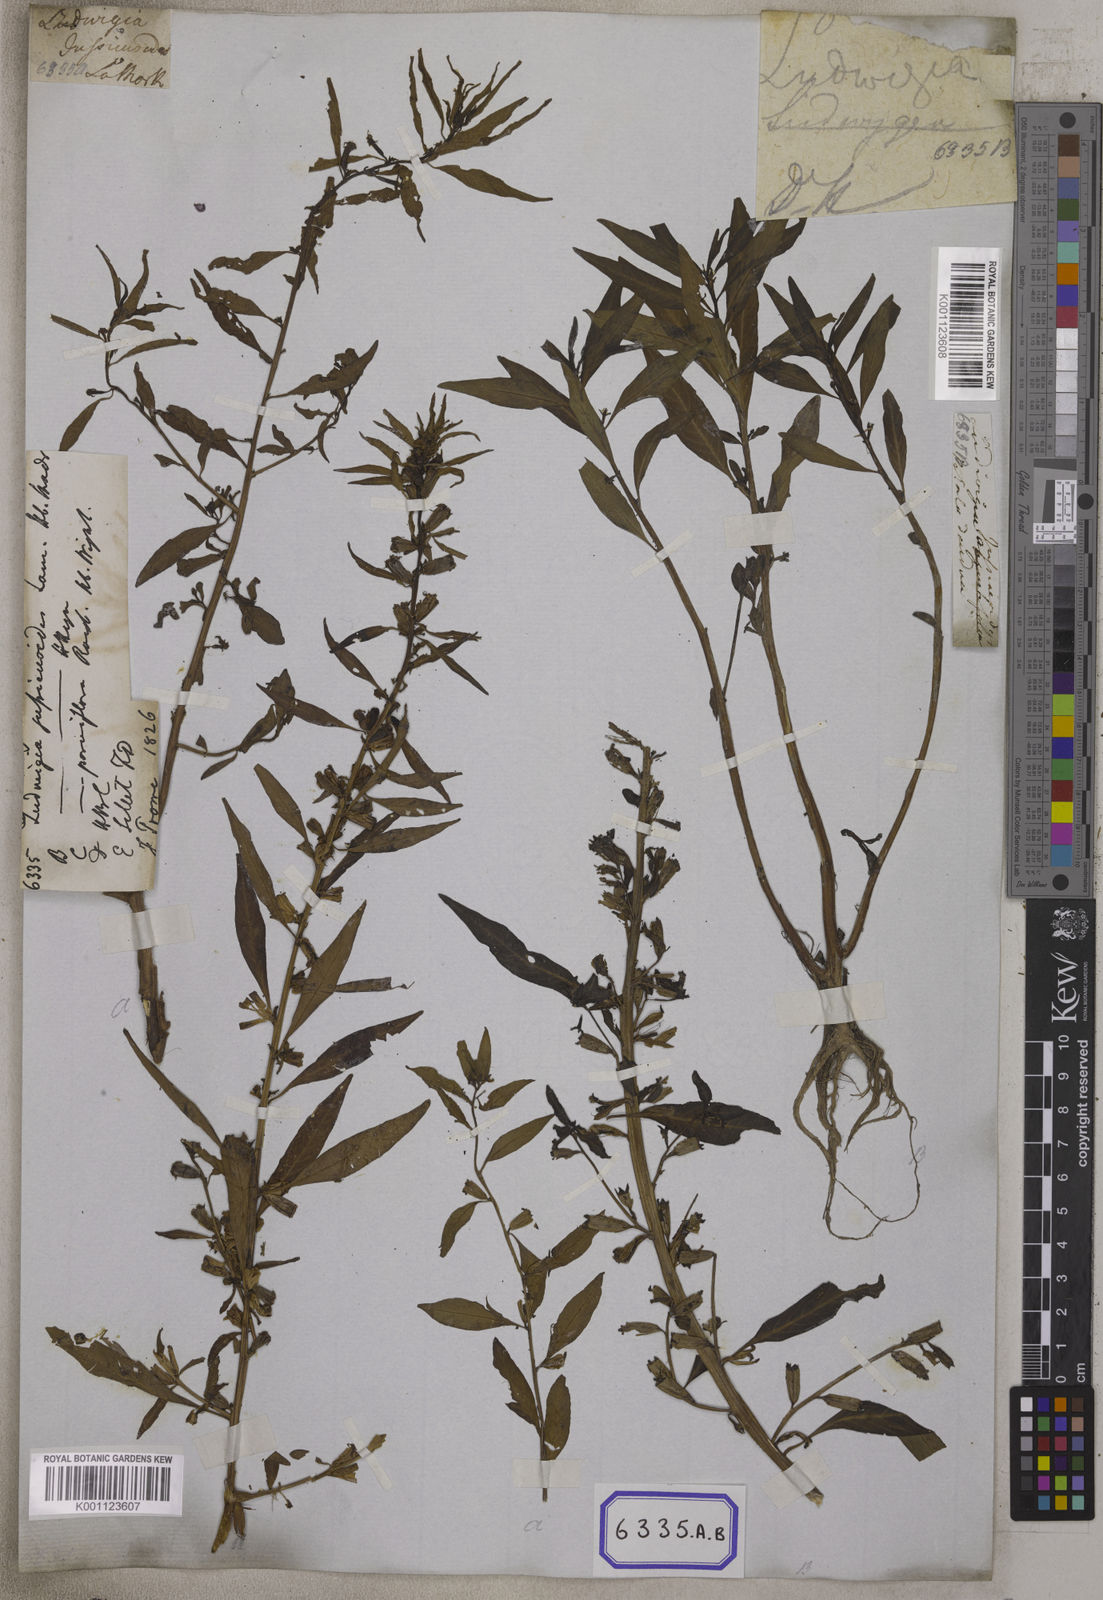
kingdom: Plantae
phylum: Tracheophyta
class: Magnoliopsida
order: Myrtales
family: Onagraceae
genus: Ludwigia
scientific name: Ludwigia perennis
